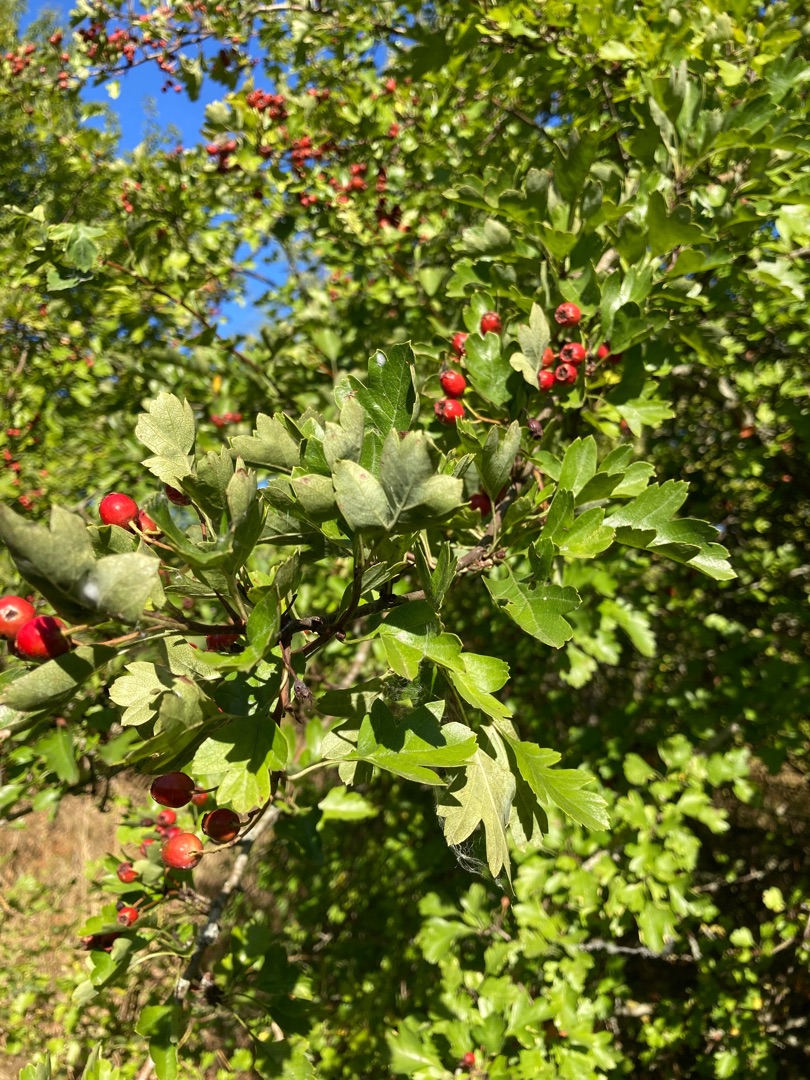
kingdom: Plantae
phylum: Tracheophyta
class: Magnoliopsida
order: Rosales
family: Rosaceae
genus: Crataegus
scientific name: Crataegus monogyna
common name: Engriflet hvidtjørn
